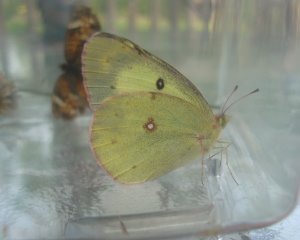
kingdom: Animalia
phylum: Arthropoda
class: Insecta
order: Lepidoptera
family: Pieridae
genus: Colias
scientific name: Colias philodice
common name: Clouded Sulphur
